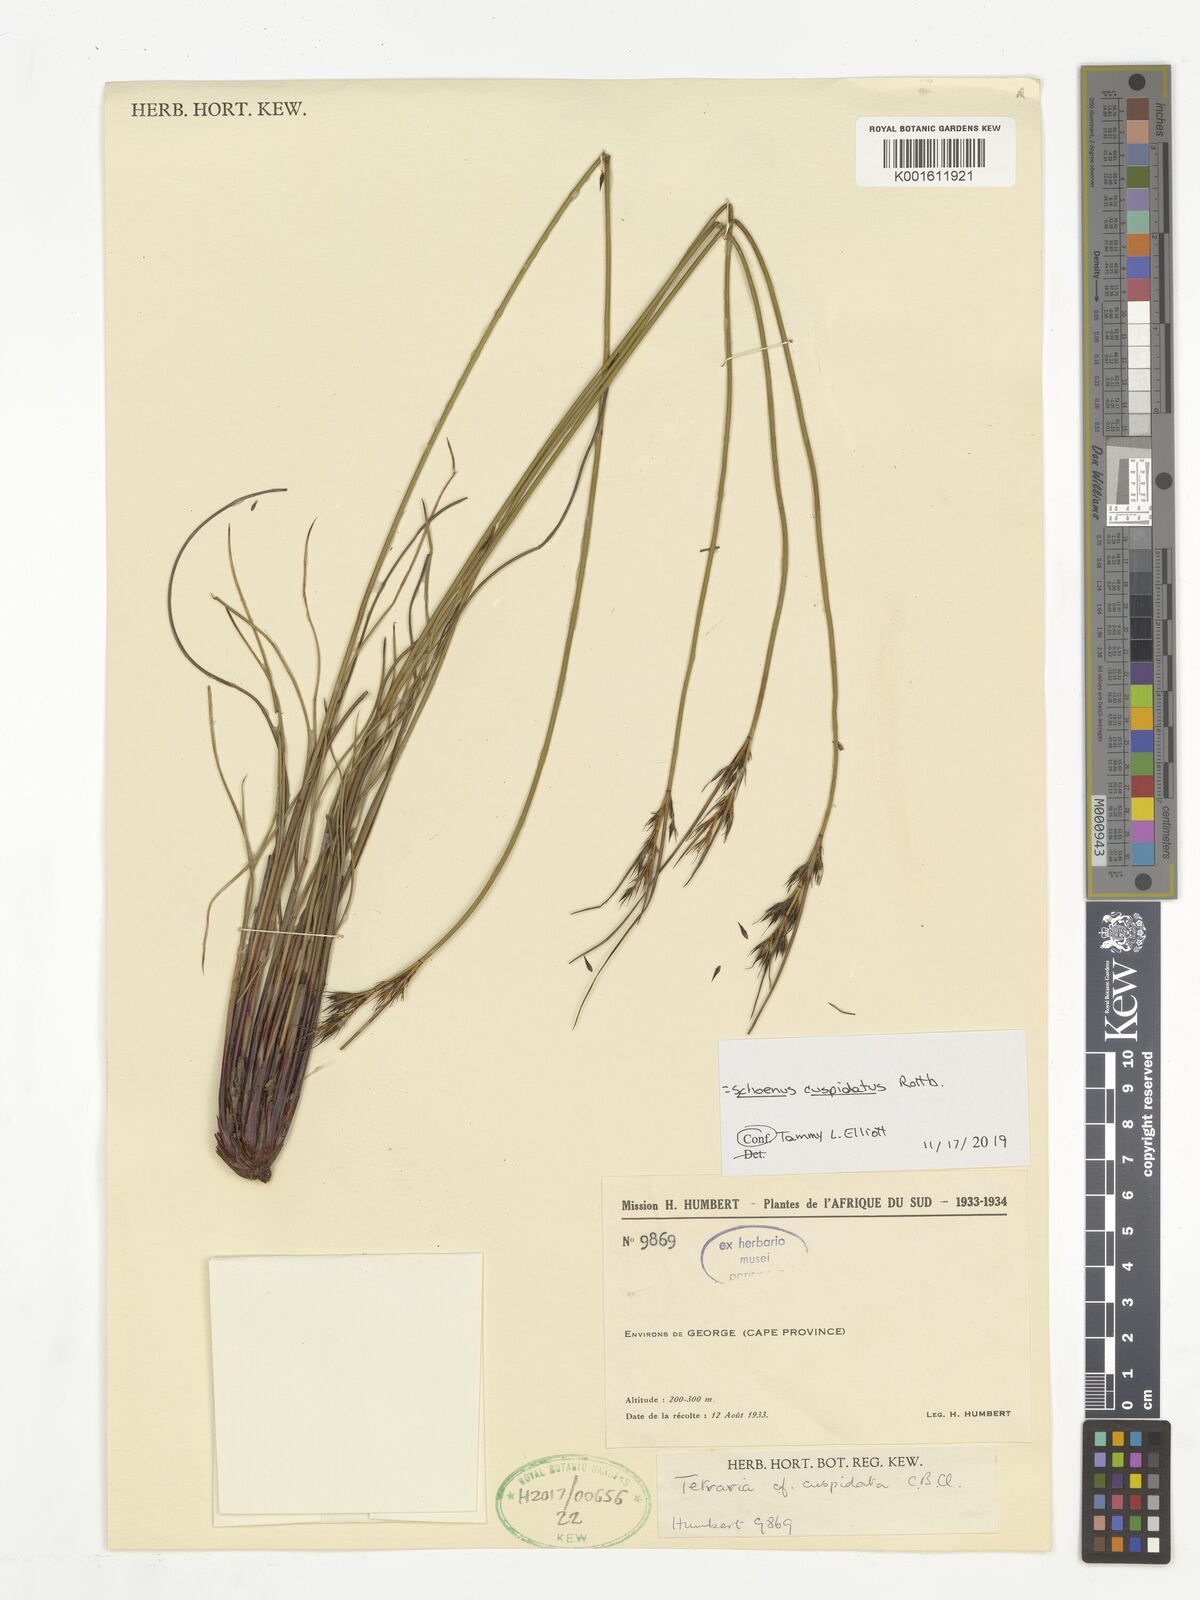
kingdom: Plantae
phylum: Tracheophyta
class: Liliopsida
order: Poales
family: Cyperaceae
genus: Schoenus
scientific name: Schoenus cuspidatus
